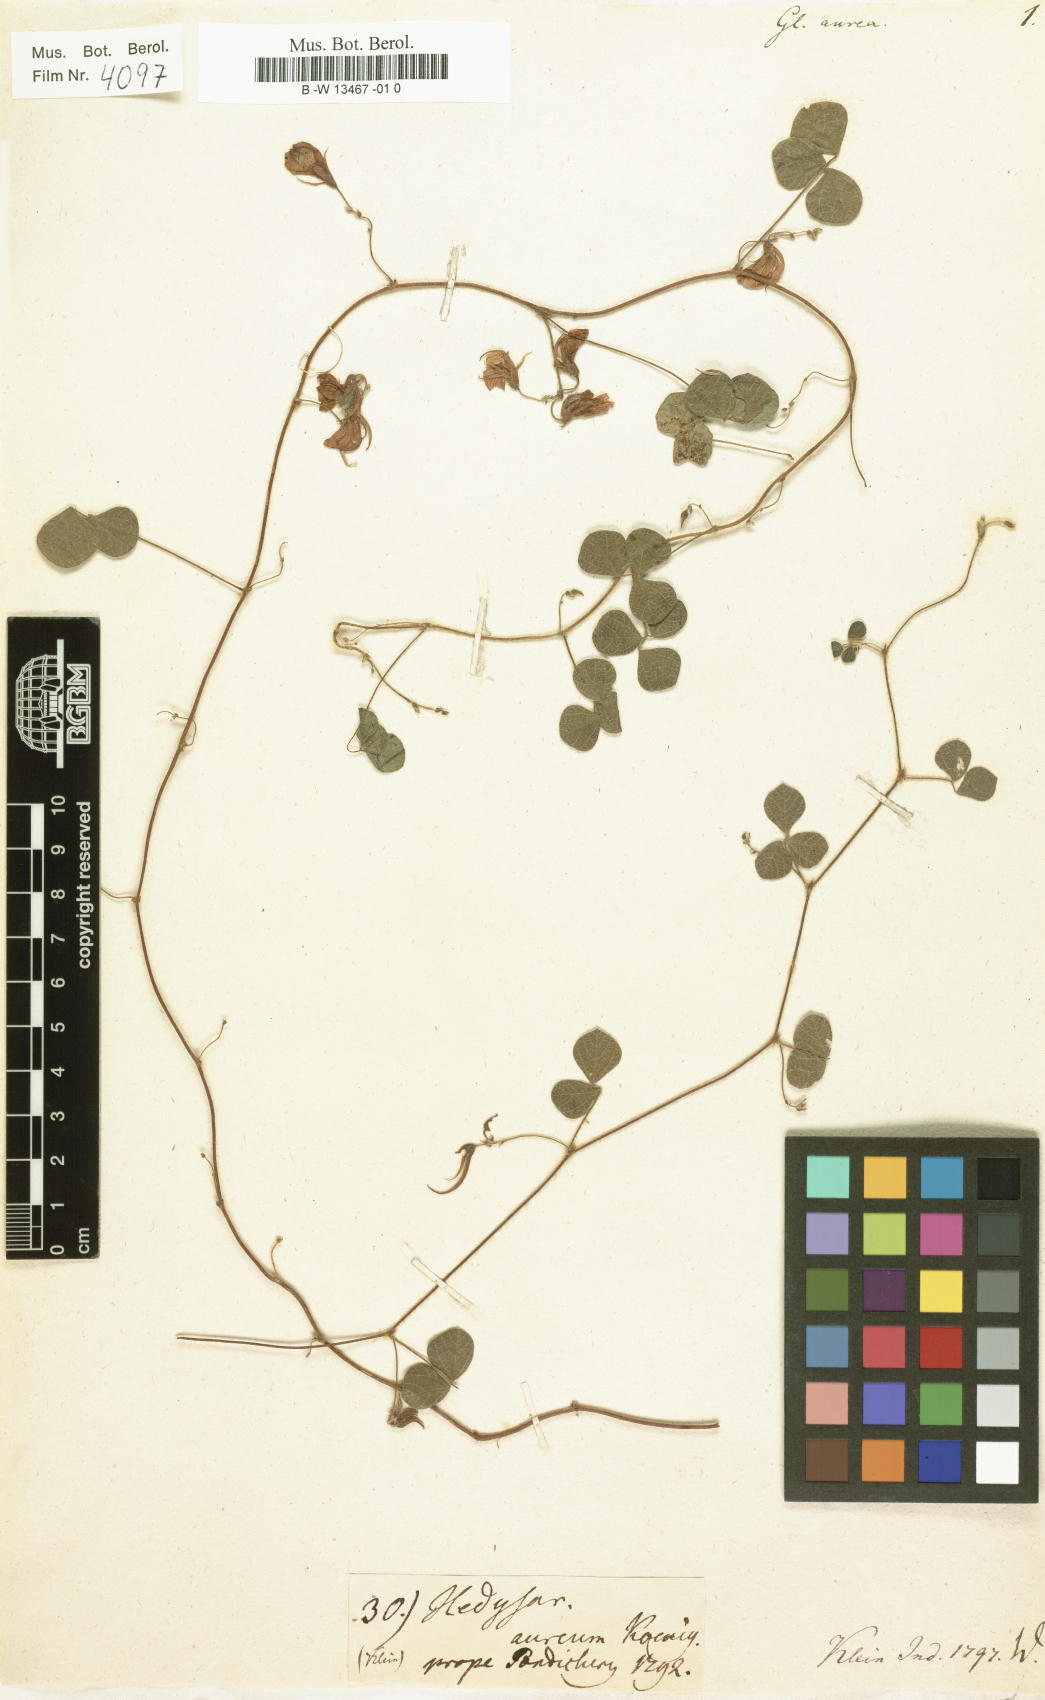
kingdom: Plantae
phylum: Tracheophyta
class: Magnoliopsida
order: Fabales
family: Fabaceae
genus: Rhynchosia
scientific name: Rhynchosia aurea
